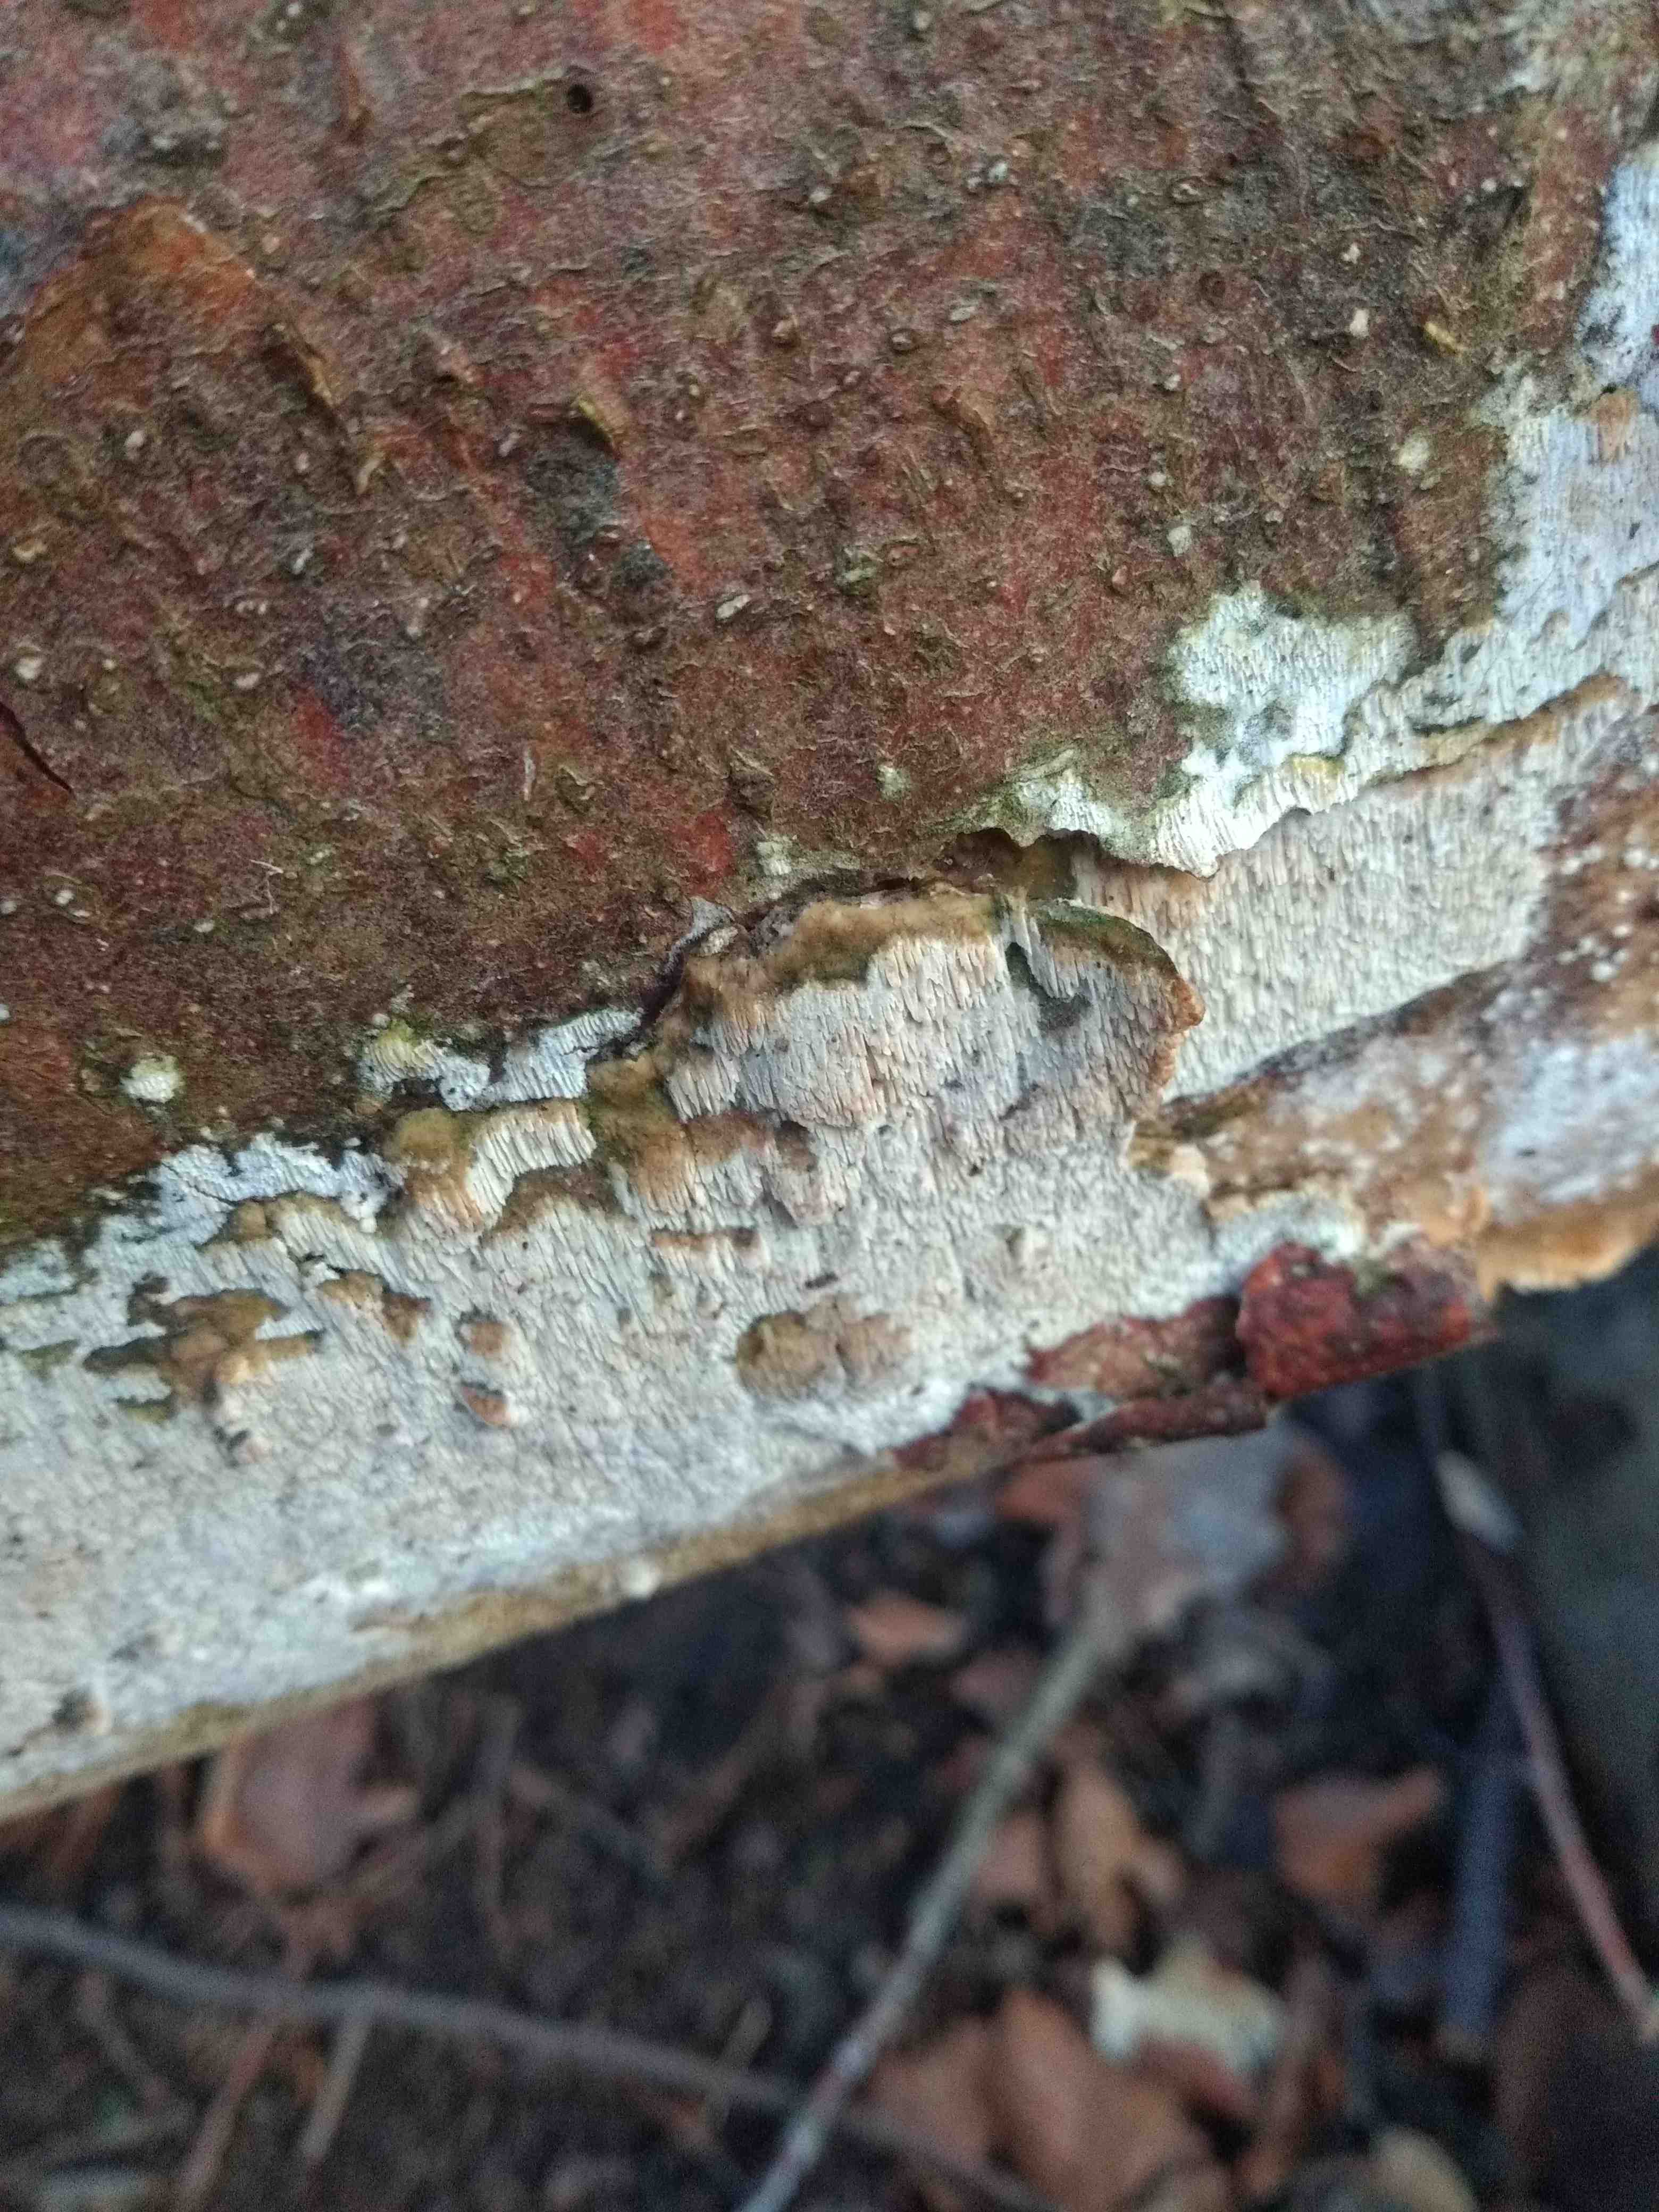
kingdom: Fungi
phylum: Basidiomycota
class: Agaricomycetes
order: Polyporales
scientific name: Polyporales
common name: poresvampordenen
